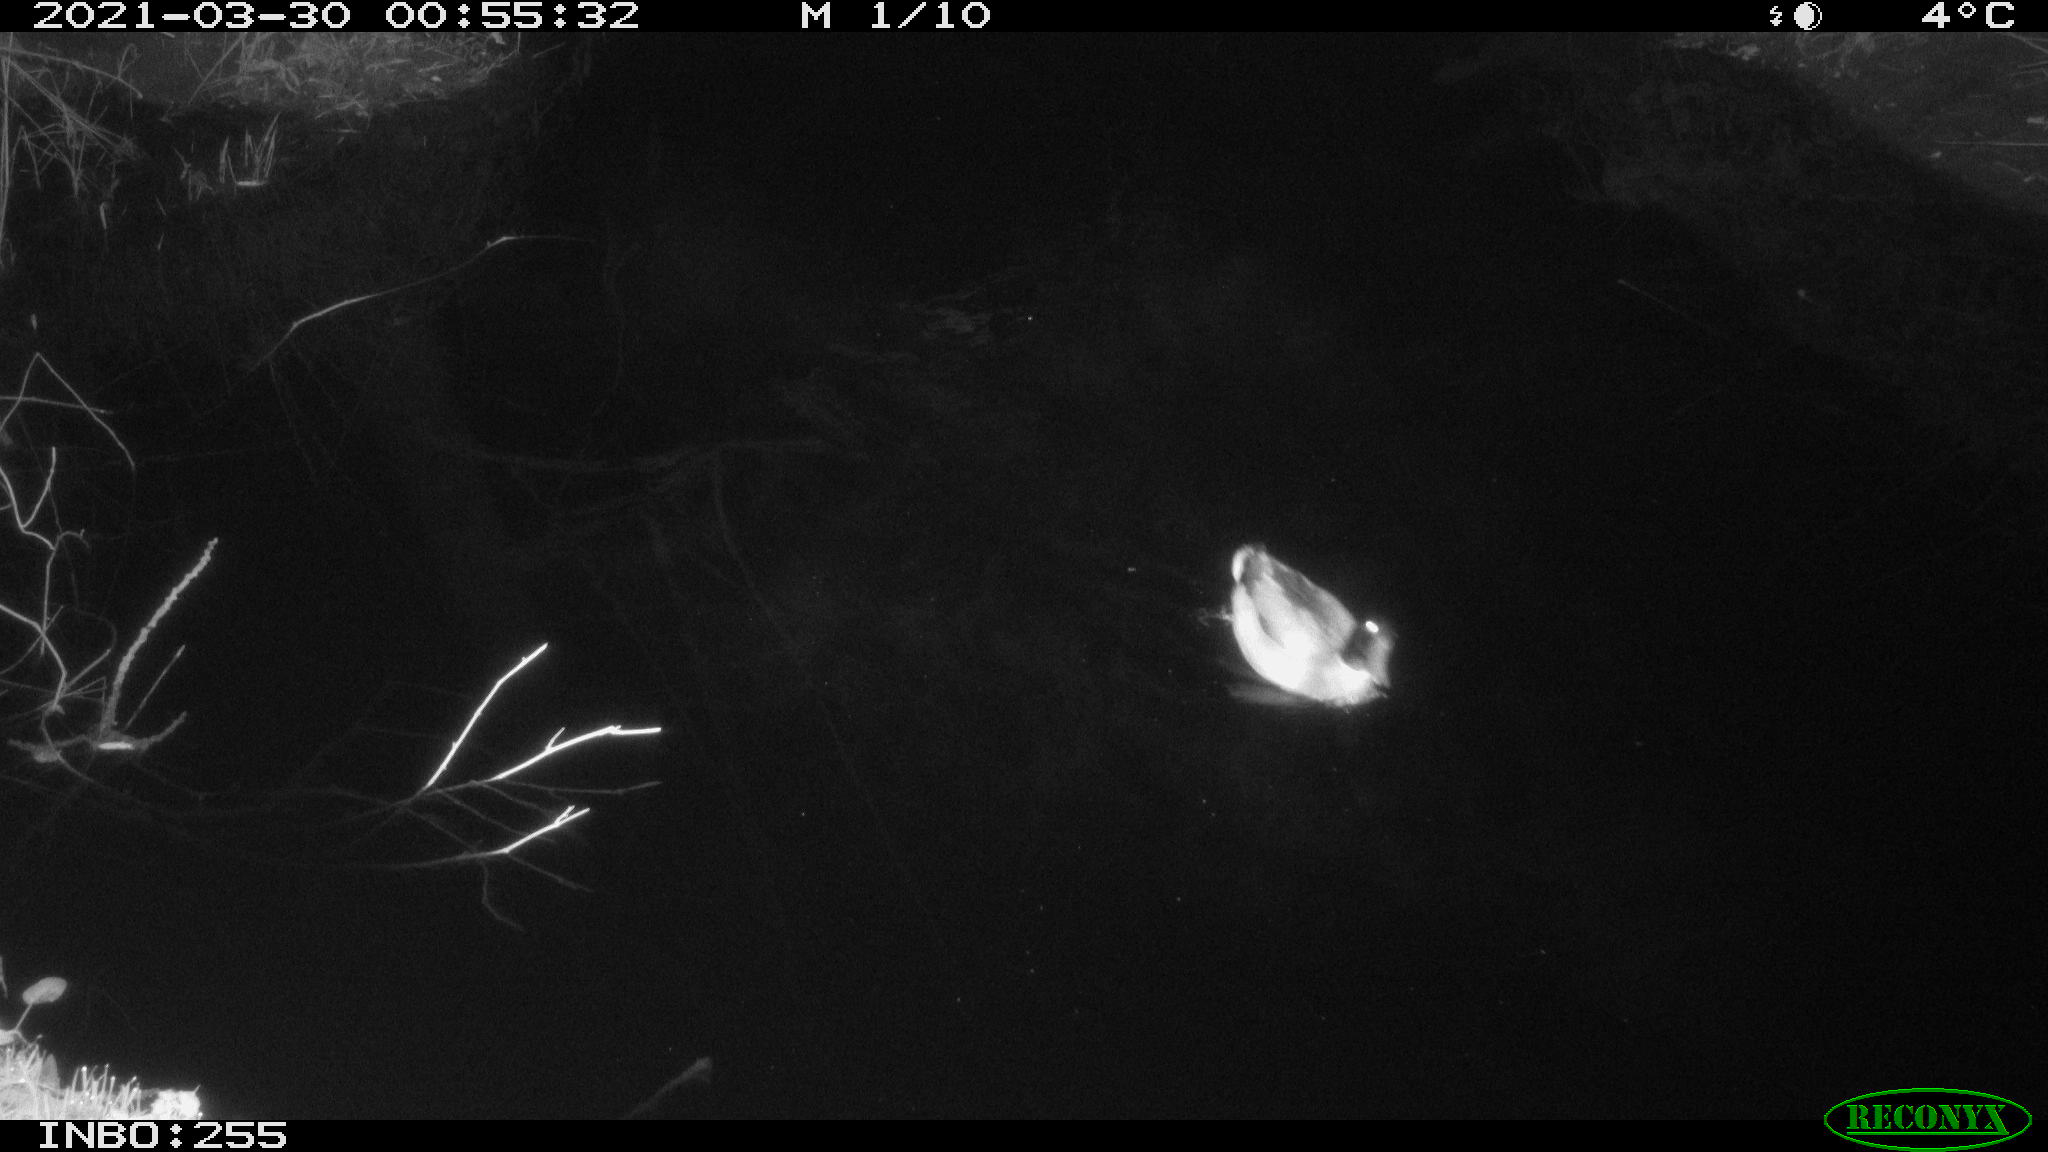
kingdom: Animalia
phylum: Chordata
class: Aves
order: Anseriformes
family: Anatidae
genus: Anas
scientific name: Anas platyrhynchos
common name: Mallard
